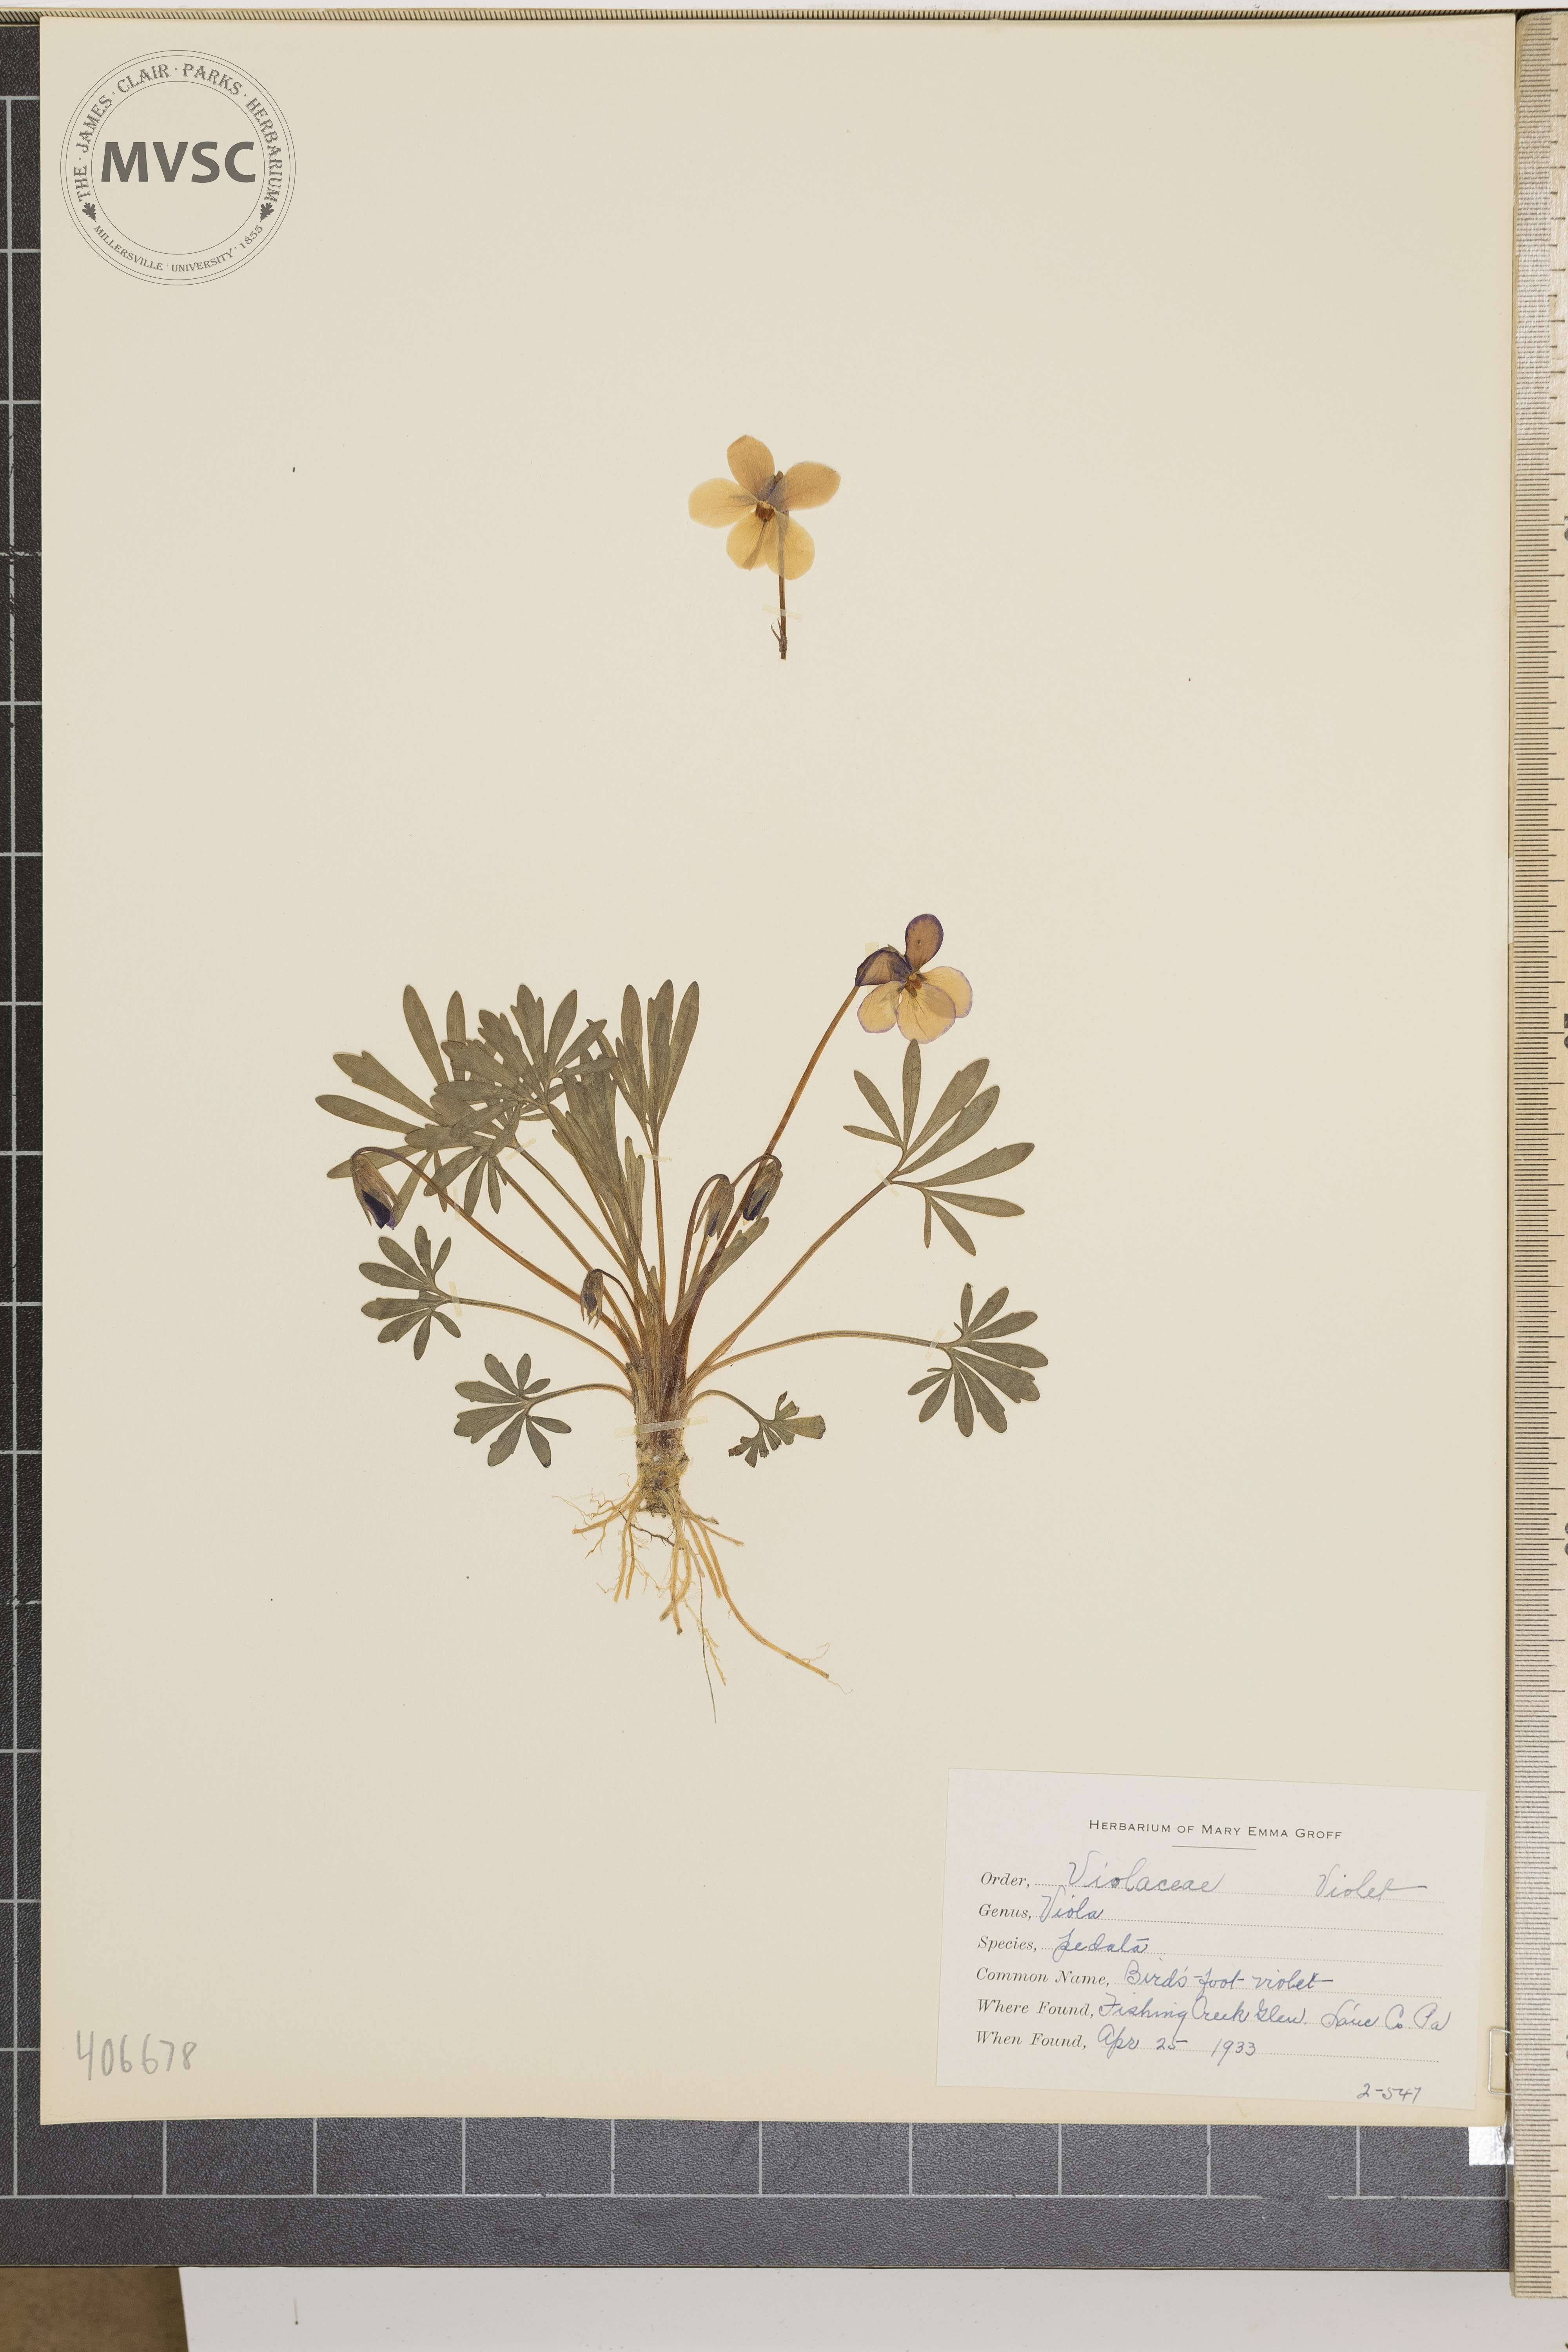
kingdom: Plantae
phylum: Tracheophyta
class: Magnoliopsida
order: Malpighiales
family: Violaceae
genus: Viola
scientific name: Viola pedata
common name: Bird's-foot violet
